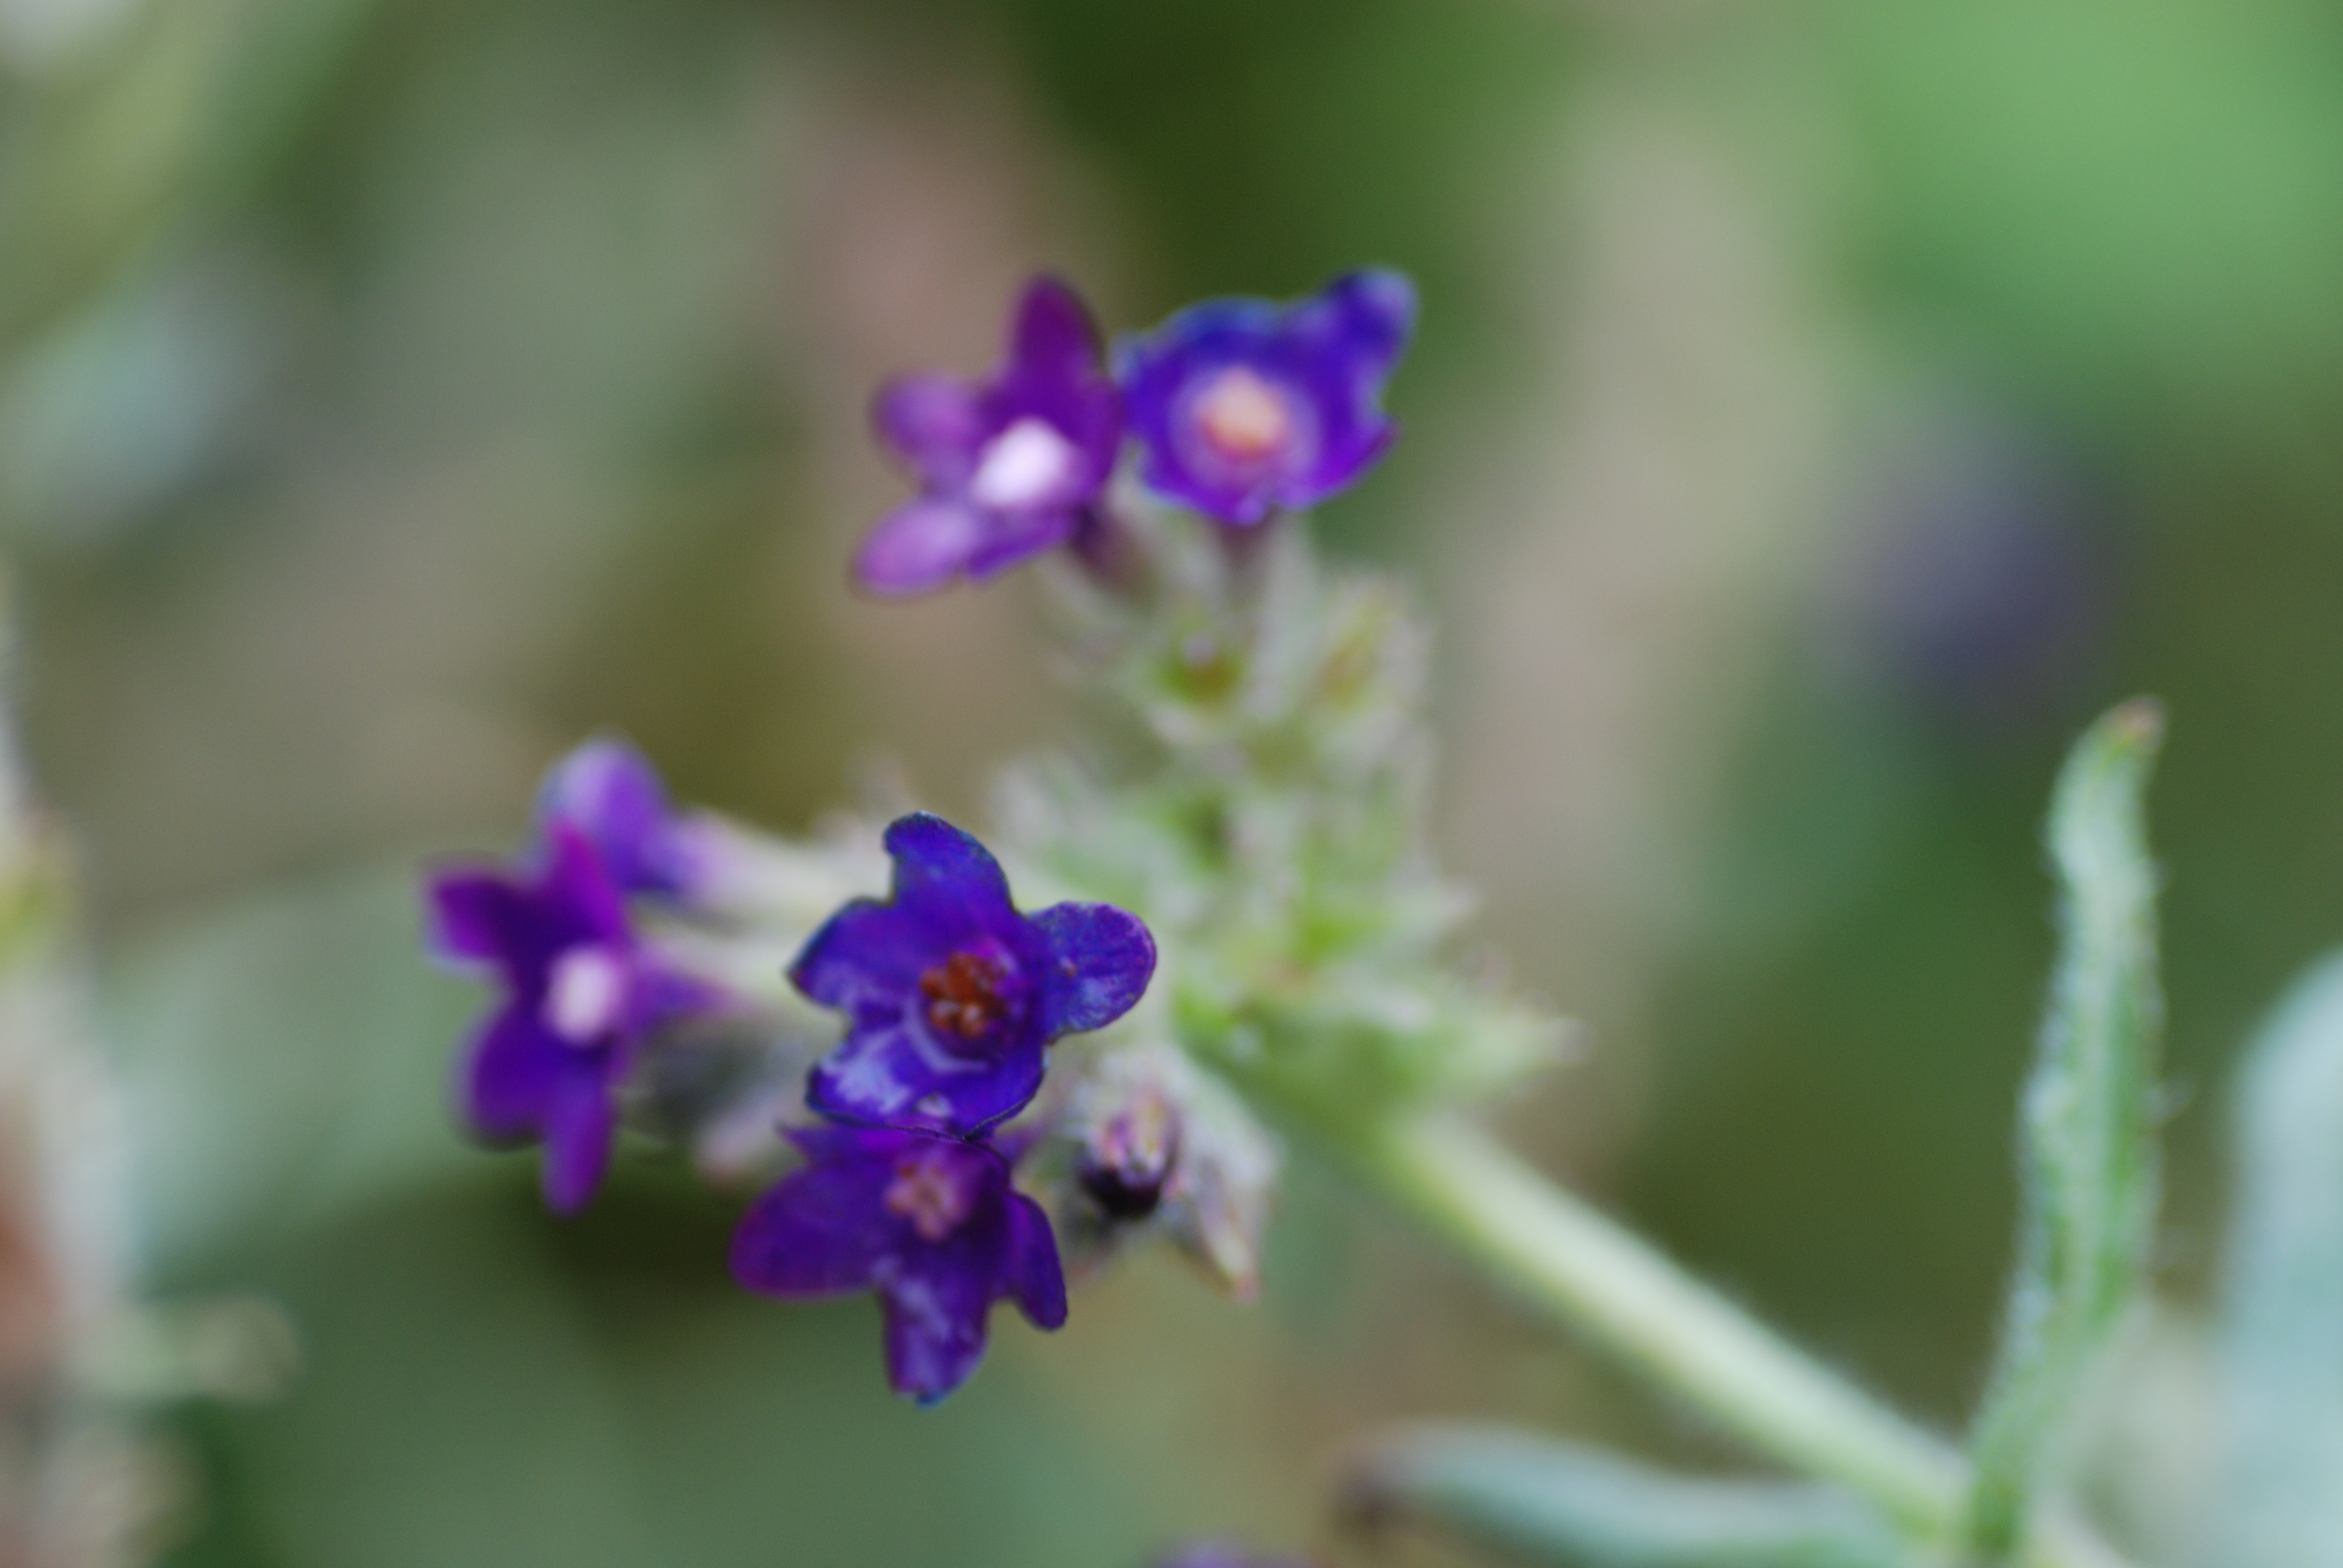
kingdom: Plantae
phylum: Tracheophyta
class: Magnoliopsida
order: Boraginales
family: Boraginaceae
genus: Anchusa
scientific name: Anchusa officinalis
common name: Alkanet
